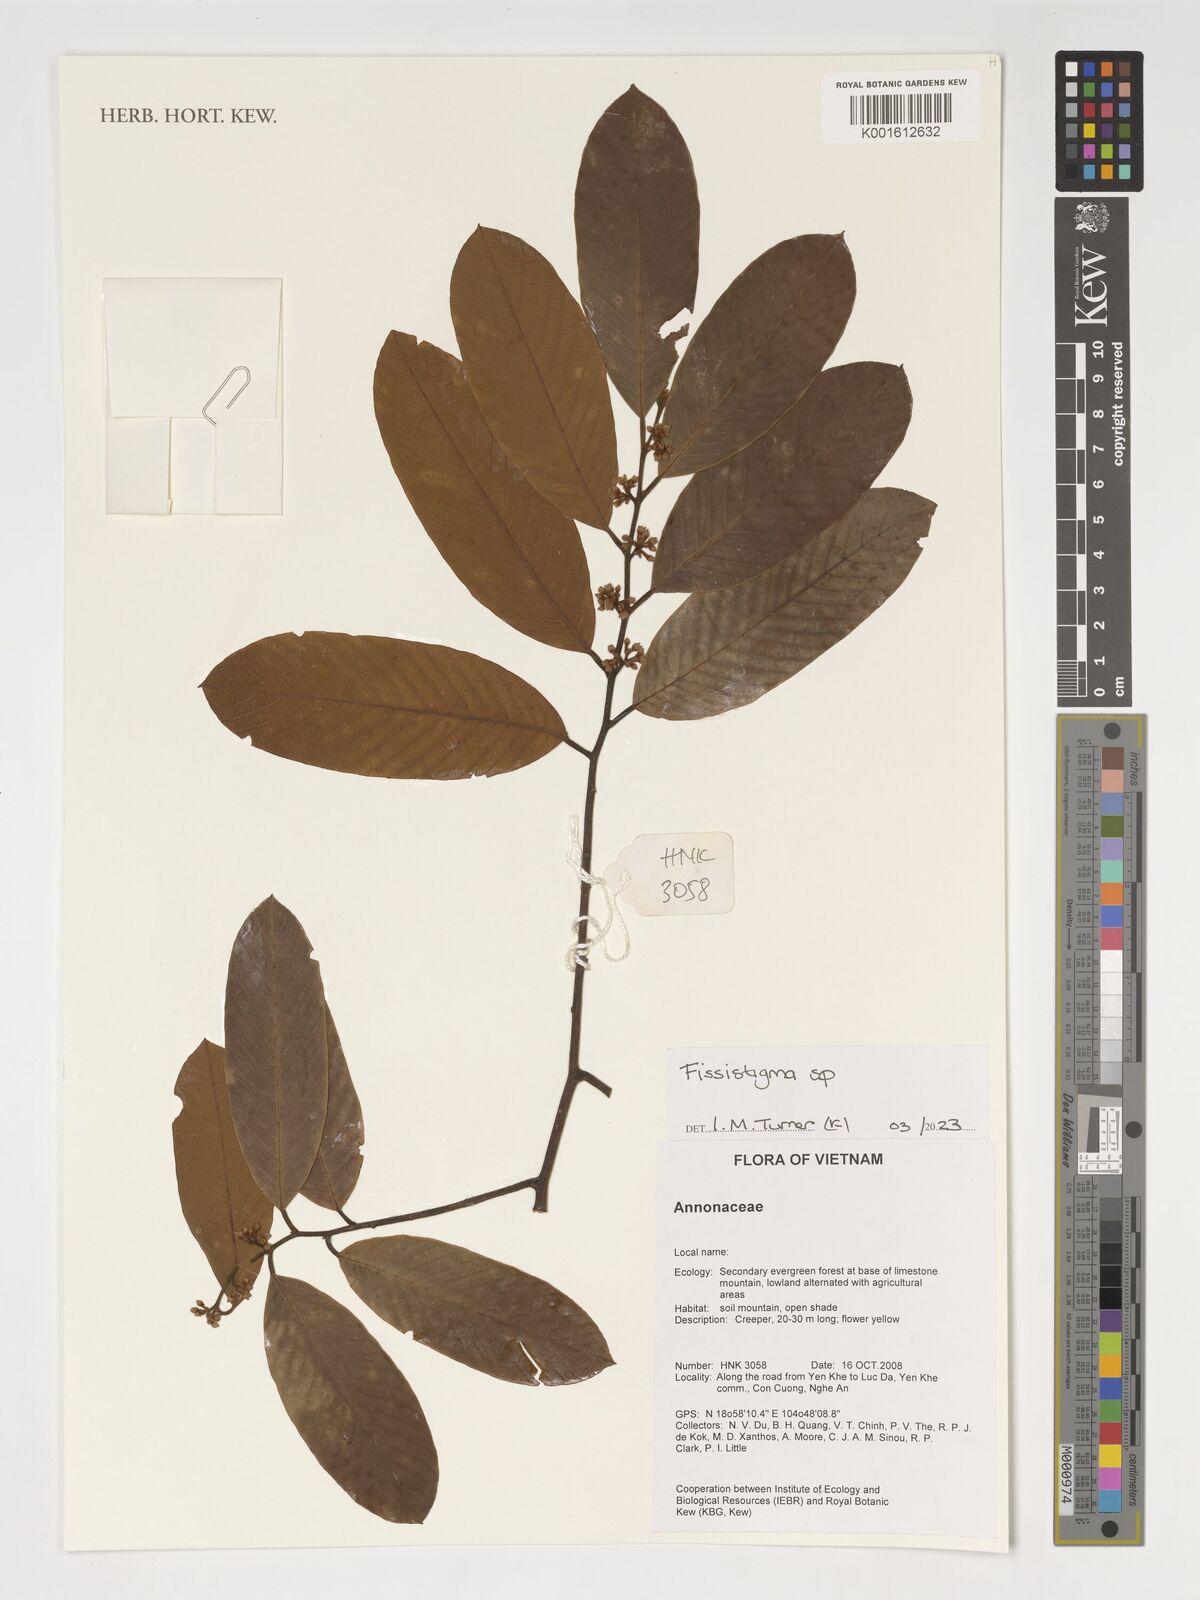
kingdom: Plantae
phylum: Tracheophyta
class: Magnoliopsida
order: Magnoliales
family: Annonaceae
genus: Fissistigma
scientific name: Fissistigma
